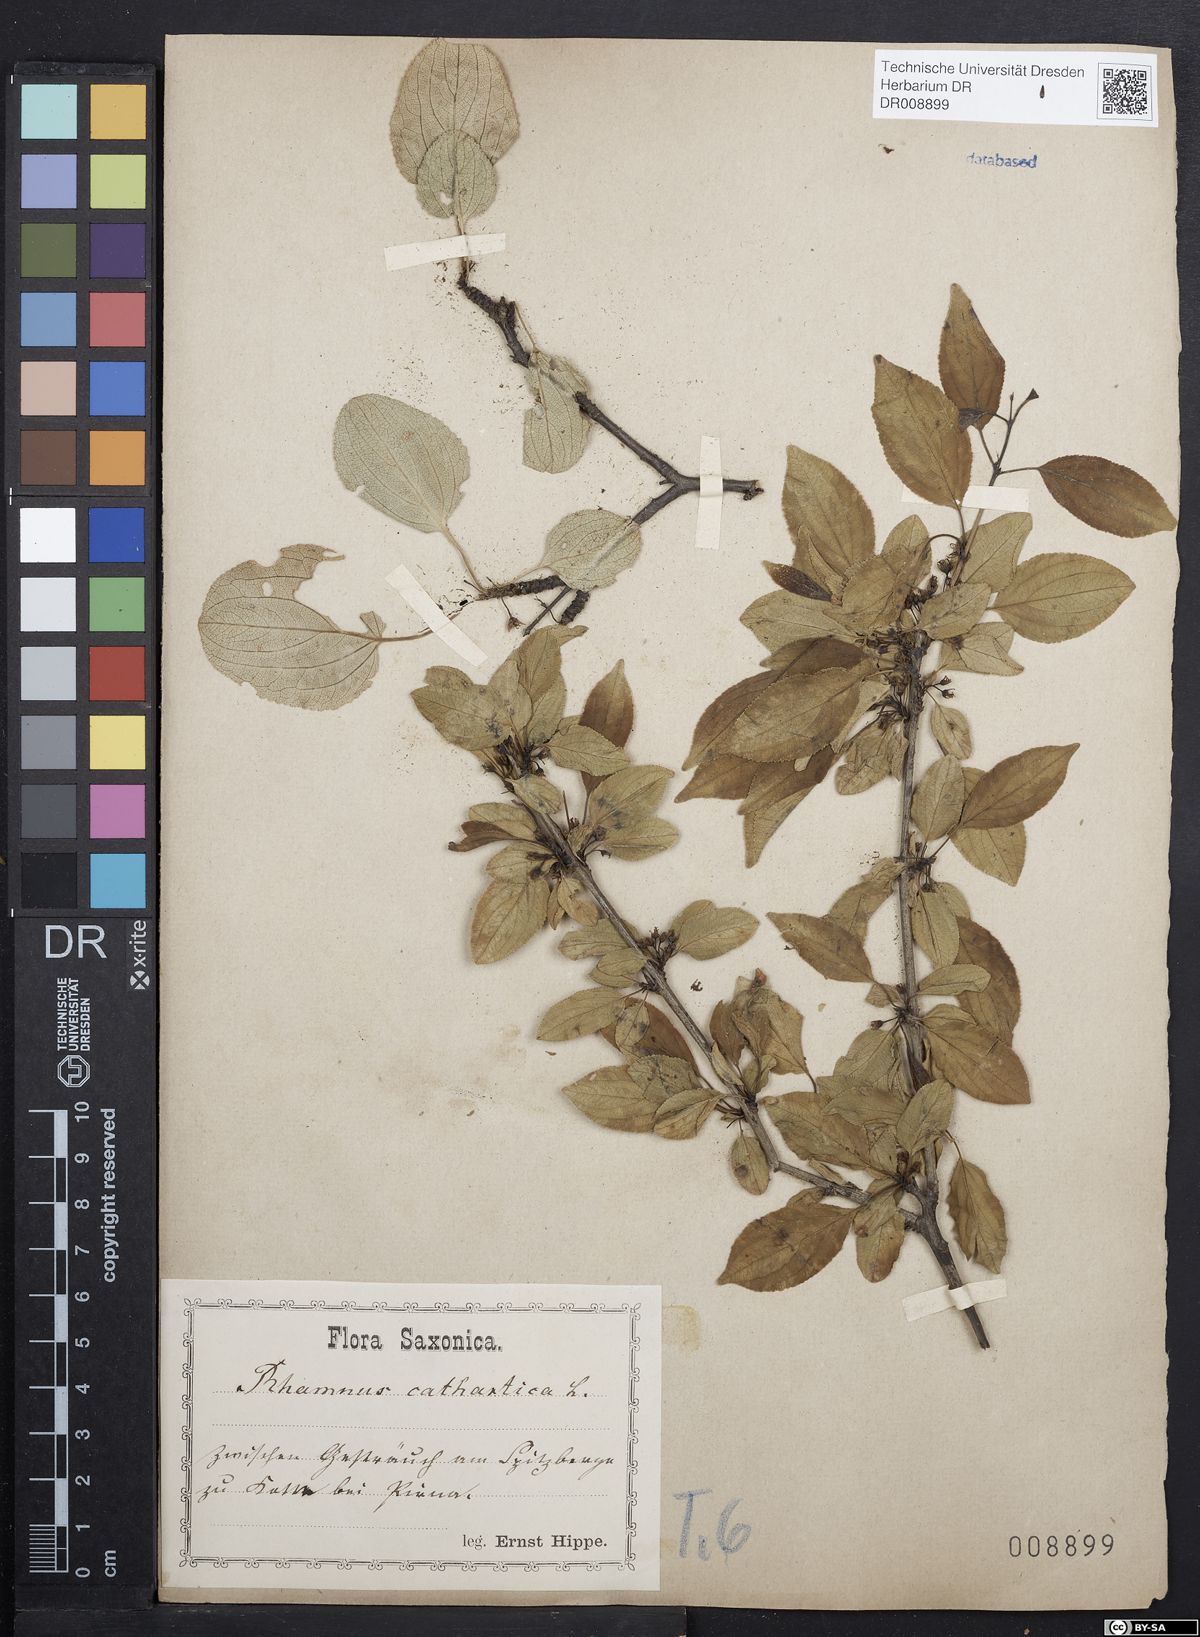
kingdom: Plantae
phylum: Tracheophyta
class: Magnoliopsida
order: Rosales
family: Rhamnaceae
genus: Rhamnus
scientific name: Rhamnus cathartica
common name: Common buckthorn
